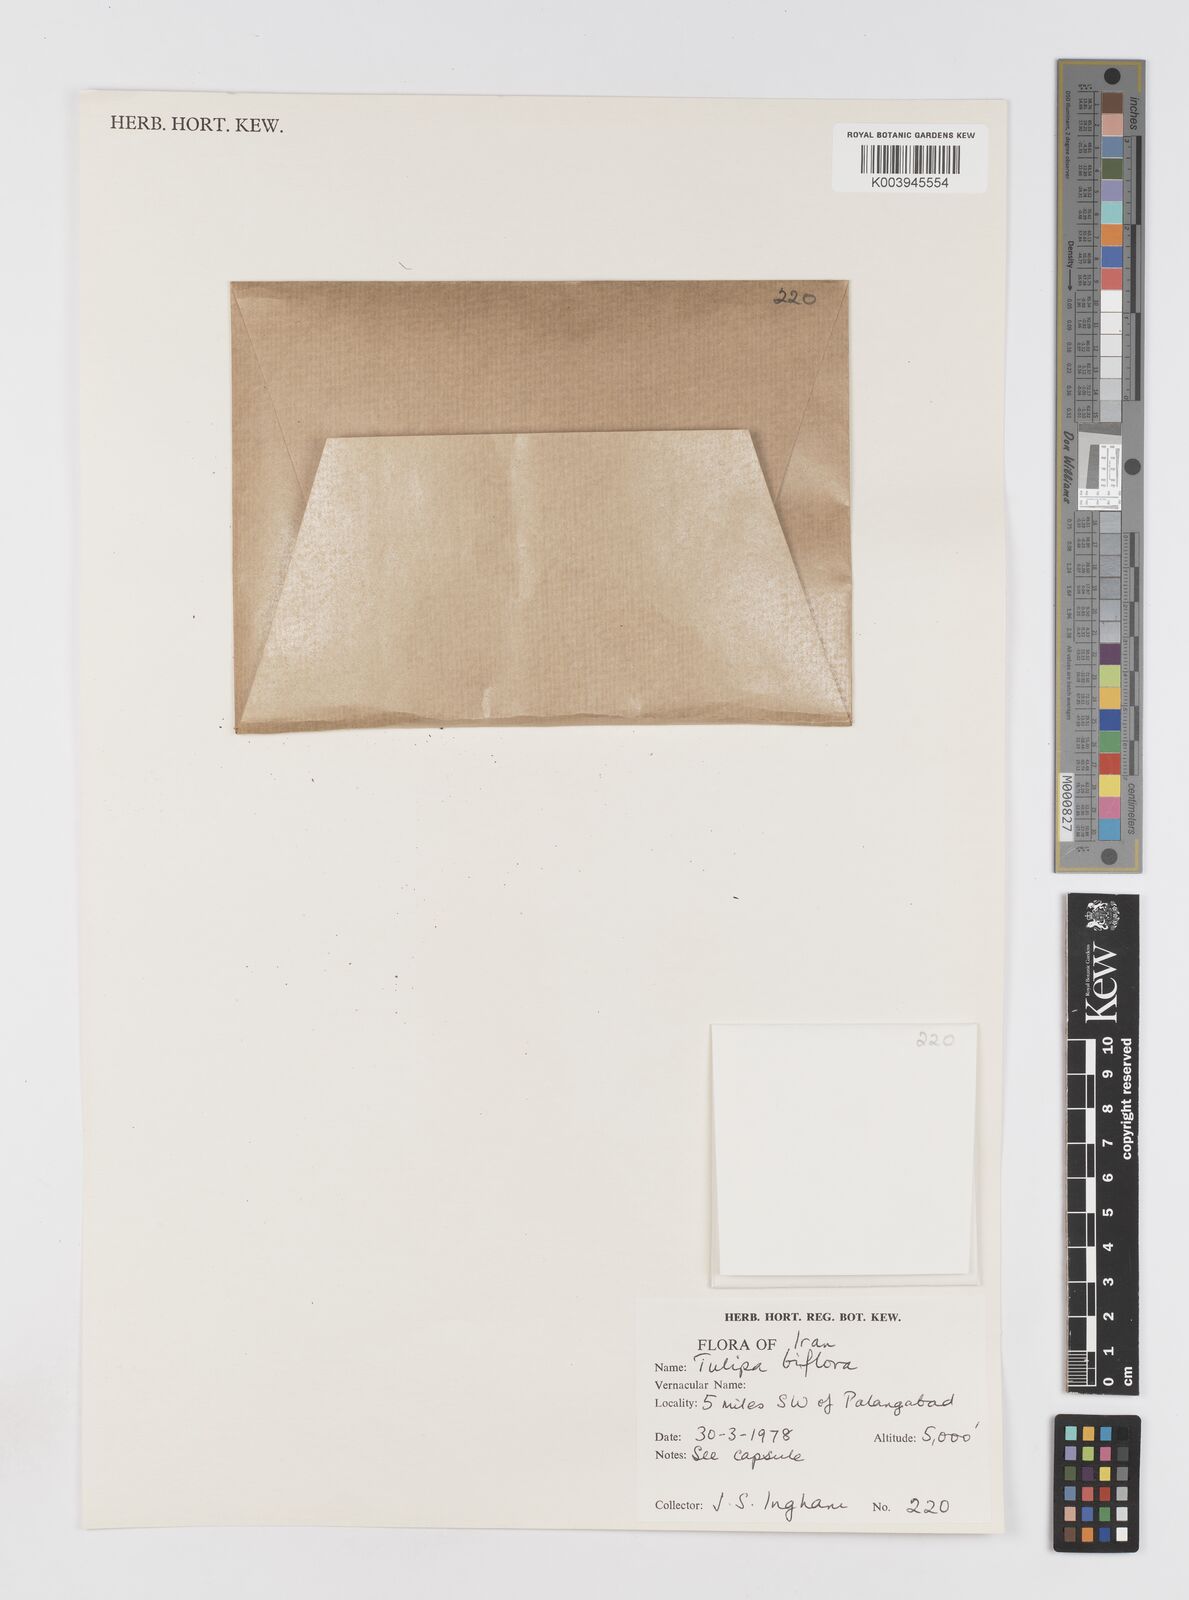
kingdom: Plantae
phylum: Tracheophyta
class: Liliopsida
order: Liliales
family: Liliaceae
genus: Tulipa
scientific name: Tulipa biflora
